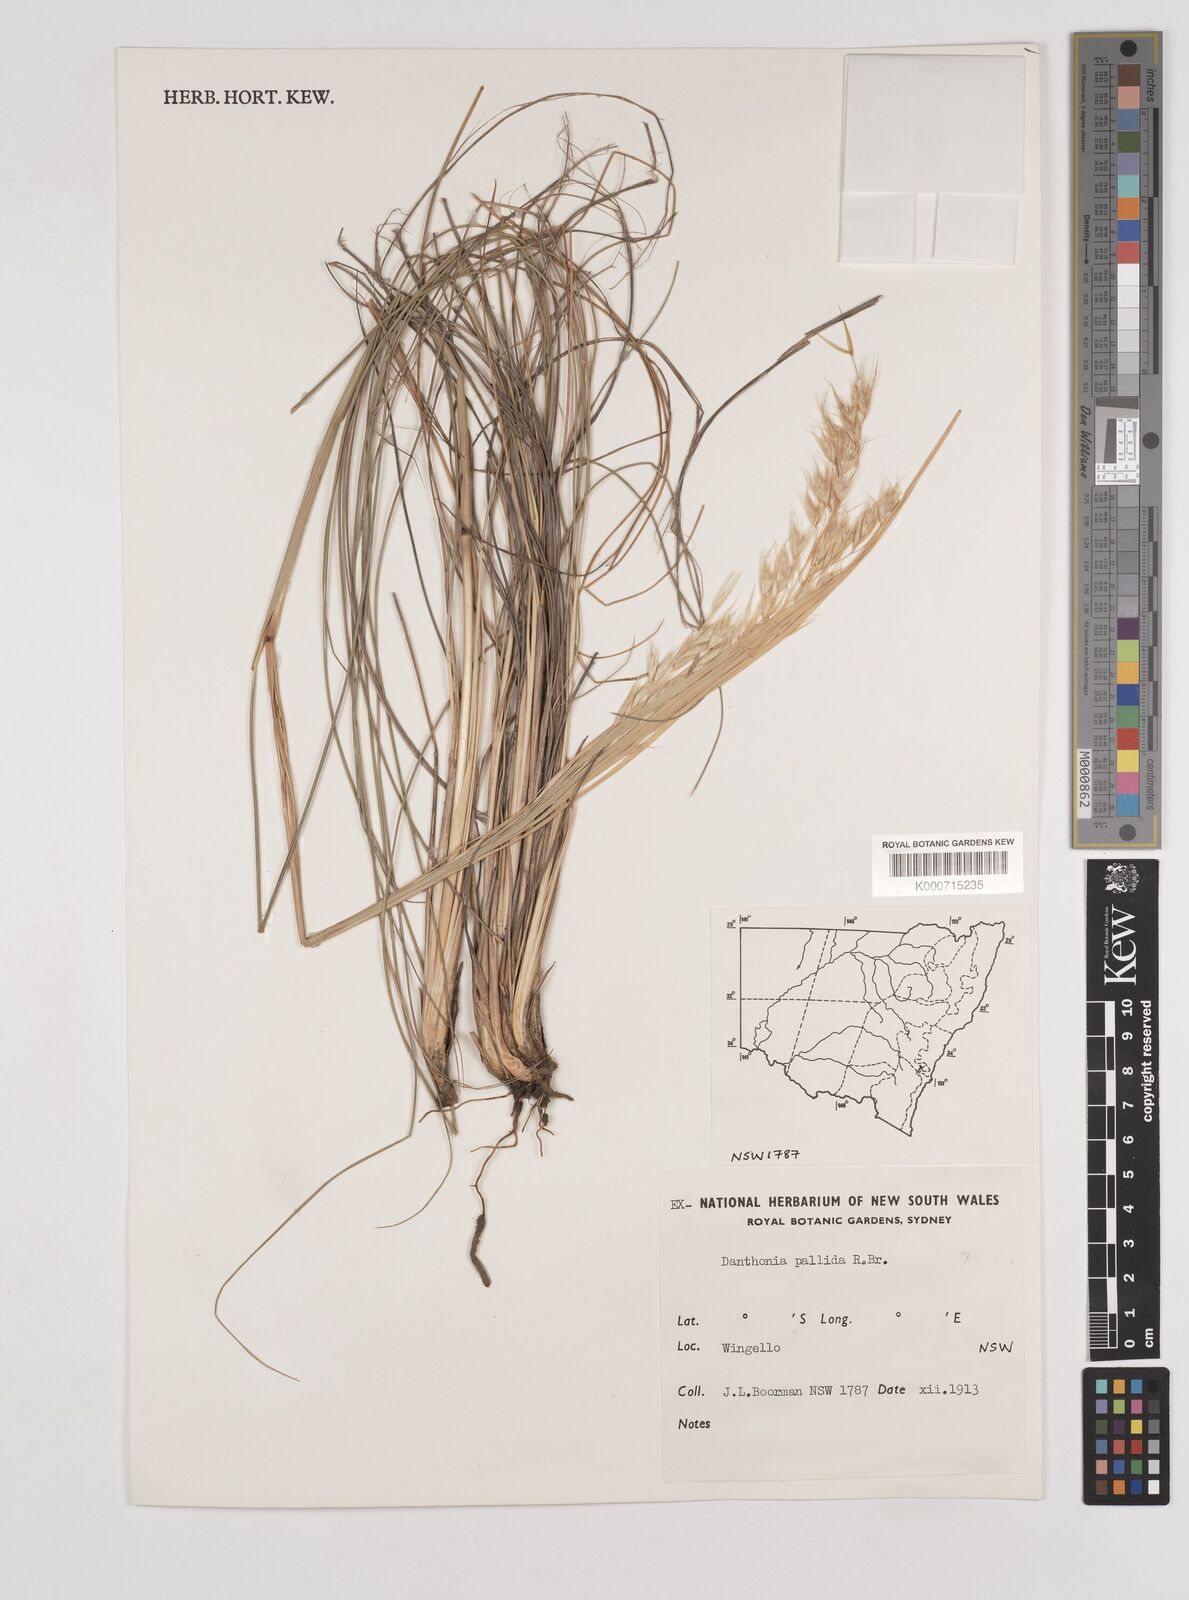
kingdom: Plantae
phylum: Tracheophyta
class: Liliopsida
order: Poales
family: Poaceae
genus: Rytidosperma
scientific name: Rytidosperma
